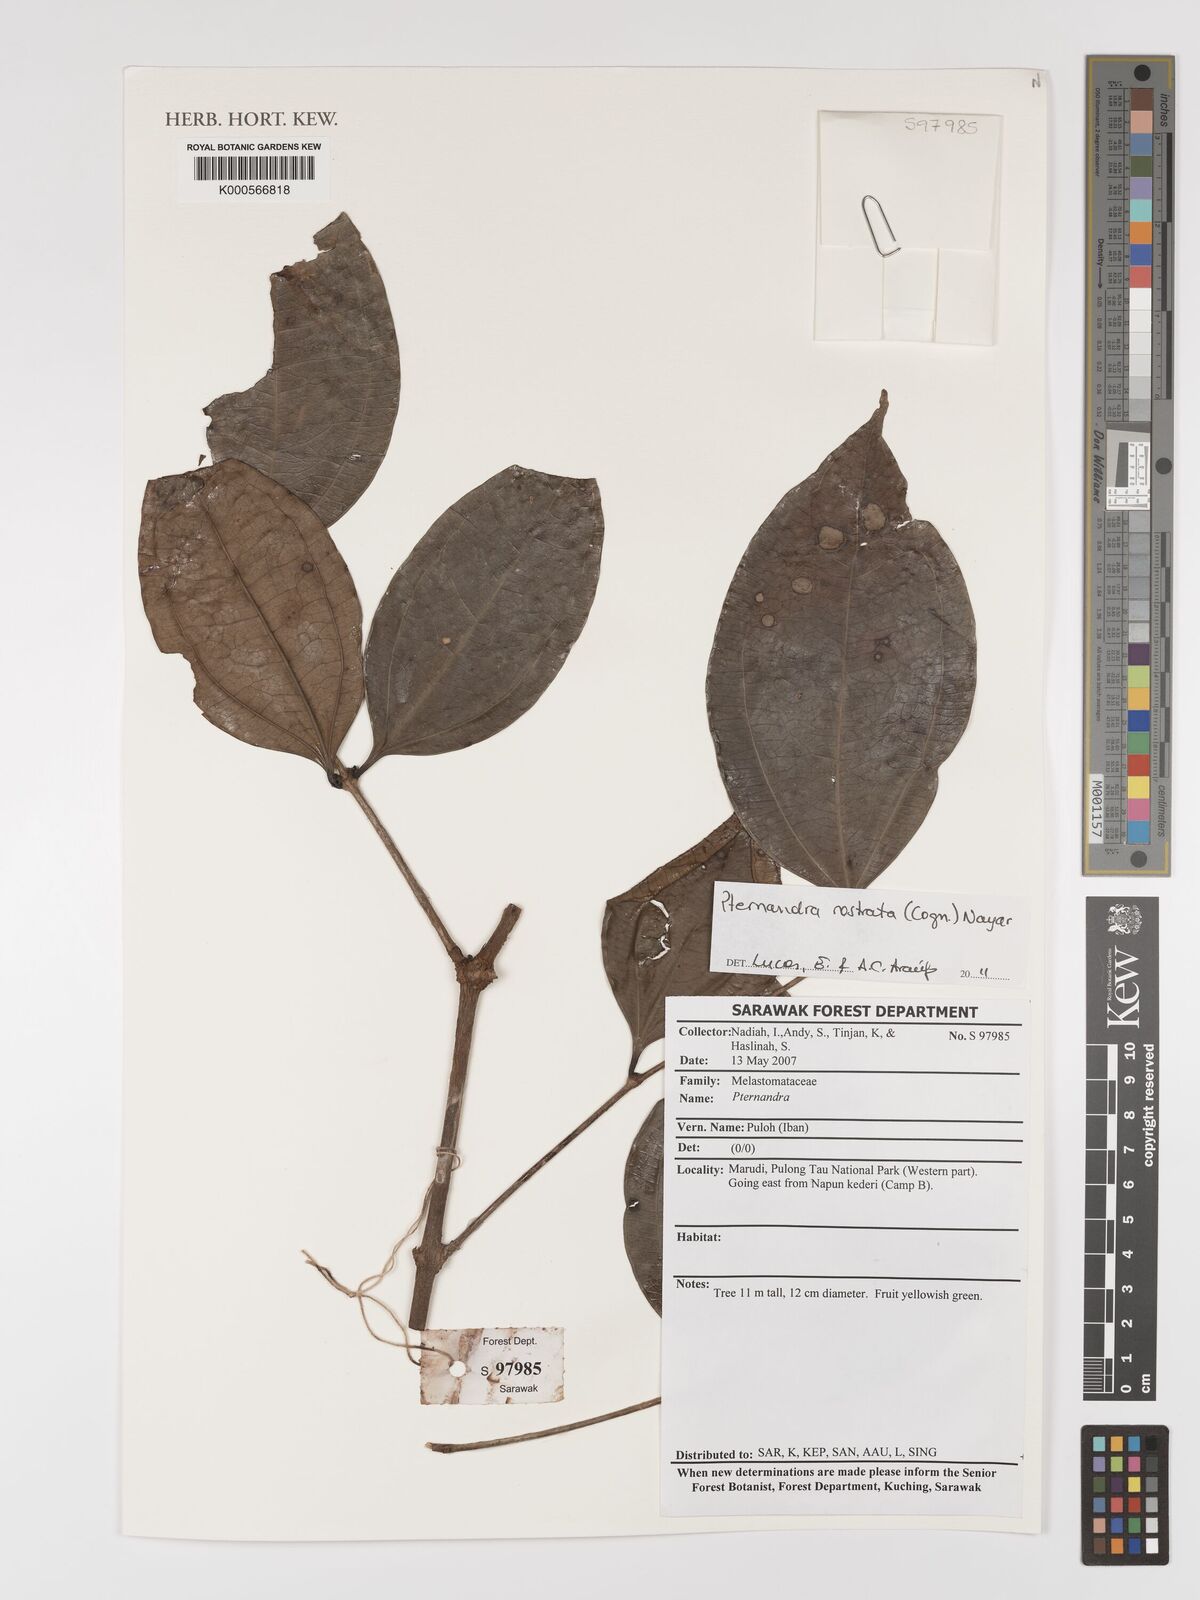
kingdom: Plantae
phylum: Tracheophyta
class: Magnoliopsida
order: Myrtales
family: Melastomataceae
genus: Pternandra
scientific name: Pternandra rostrata
